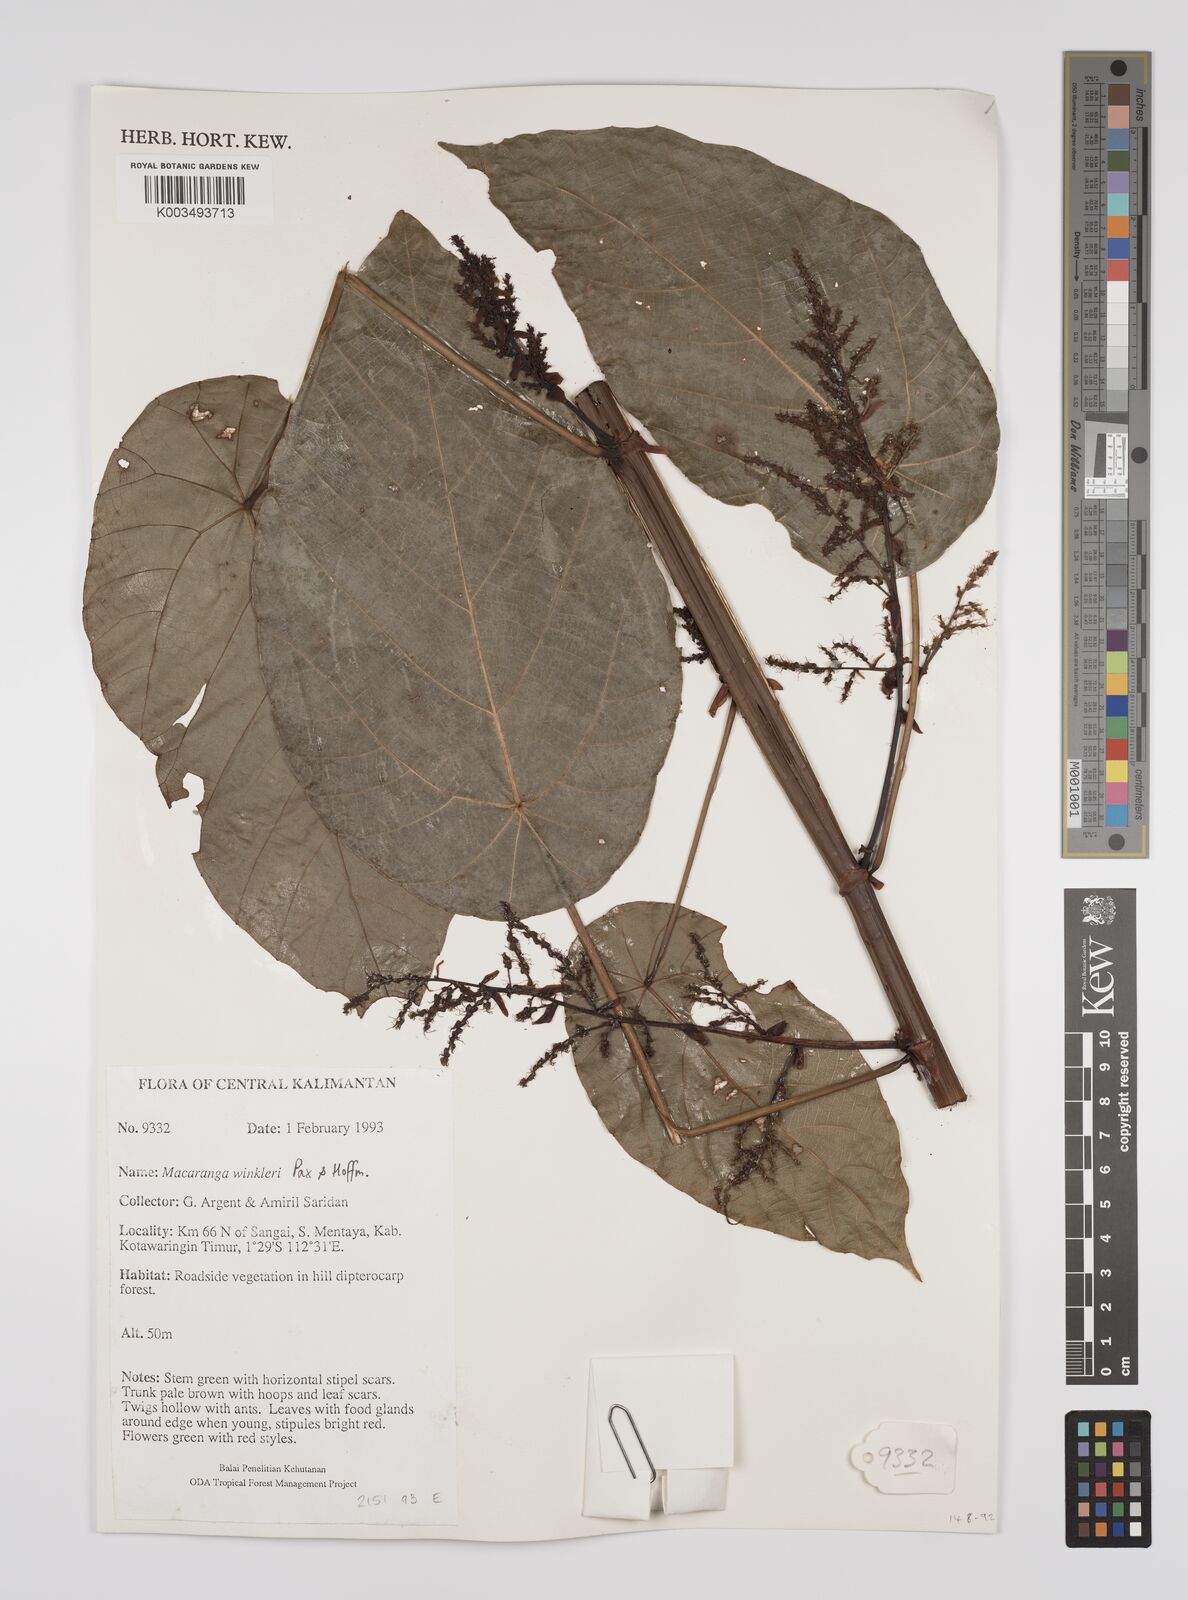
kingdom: Plantae
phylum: Tracheophyta
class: Magnoliopsida
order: Malpighiales
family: Euphorbiaceae
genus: Macaranga
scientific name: Macaranga winkleri
